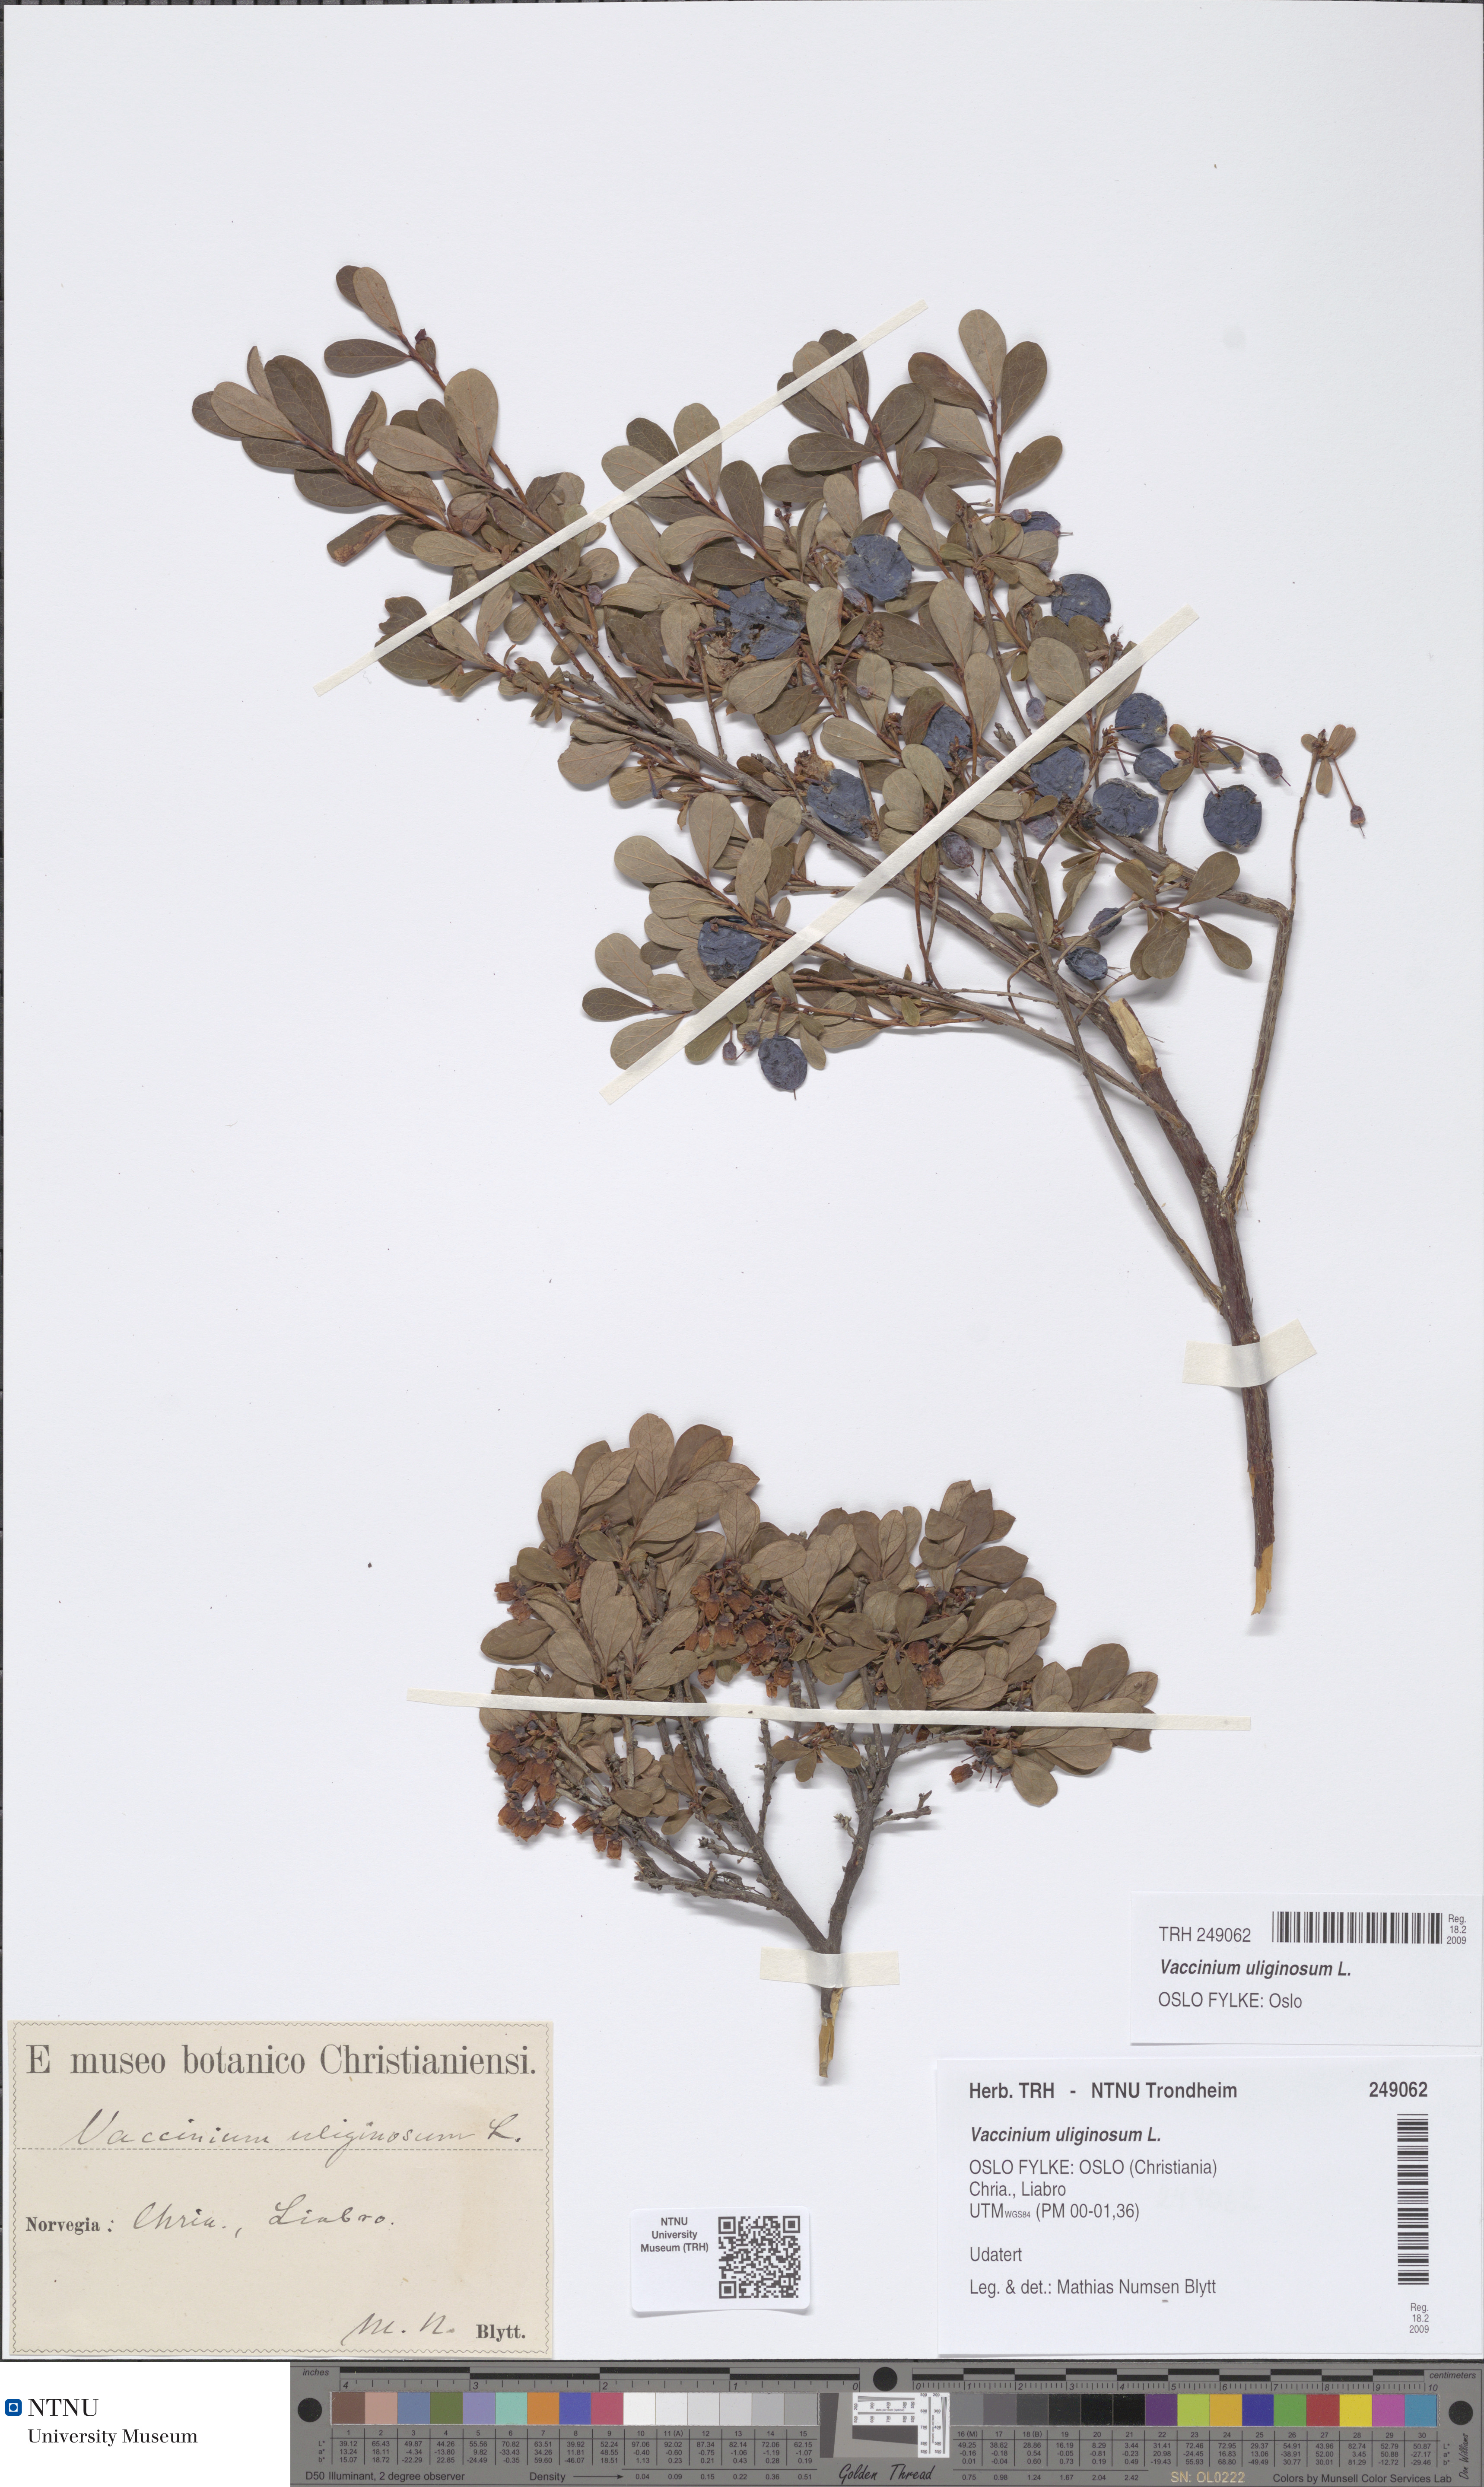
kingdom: Plantae
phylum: Tracheophyta
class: Magnoliopsida
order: Ericales
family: Ericaceae
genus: Vaccinium
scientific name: Vaccinium uliginosum
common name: Bog bilberry
